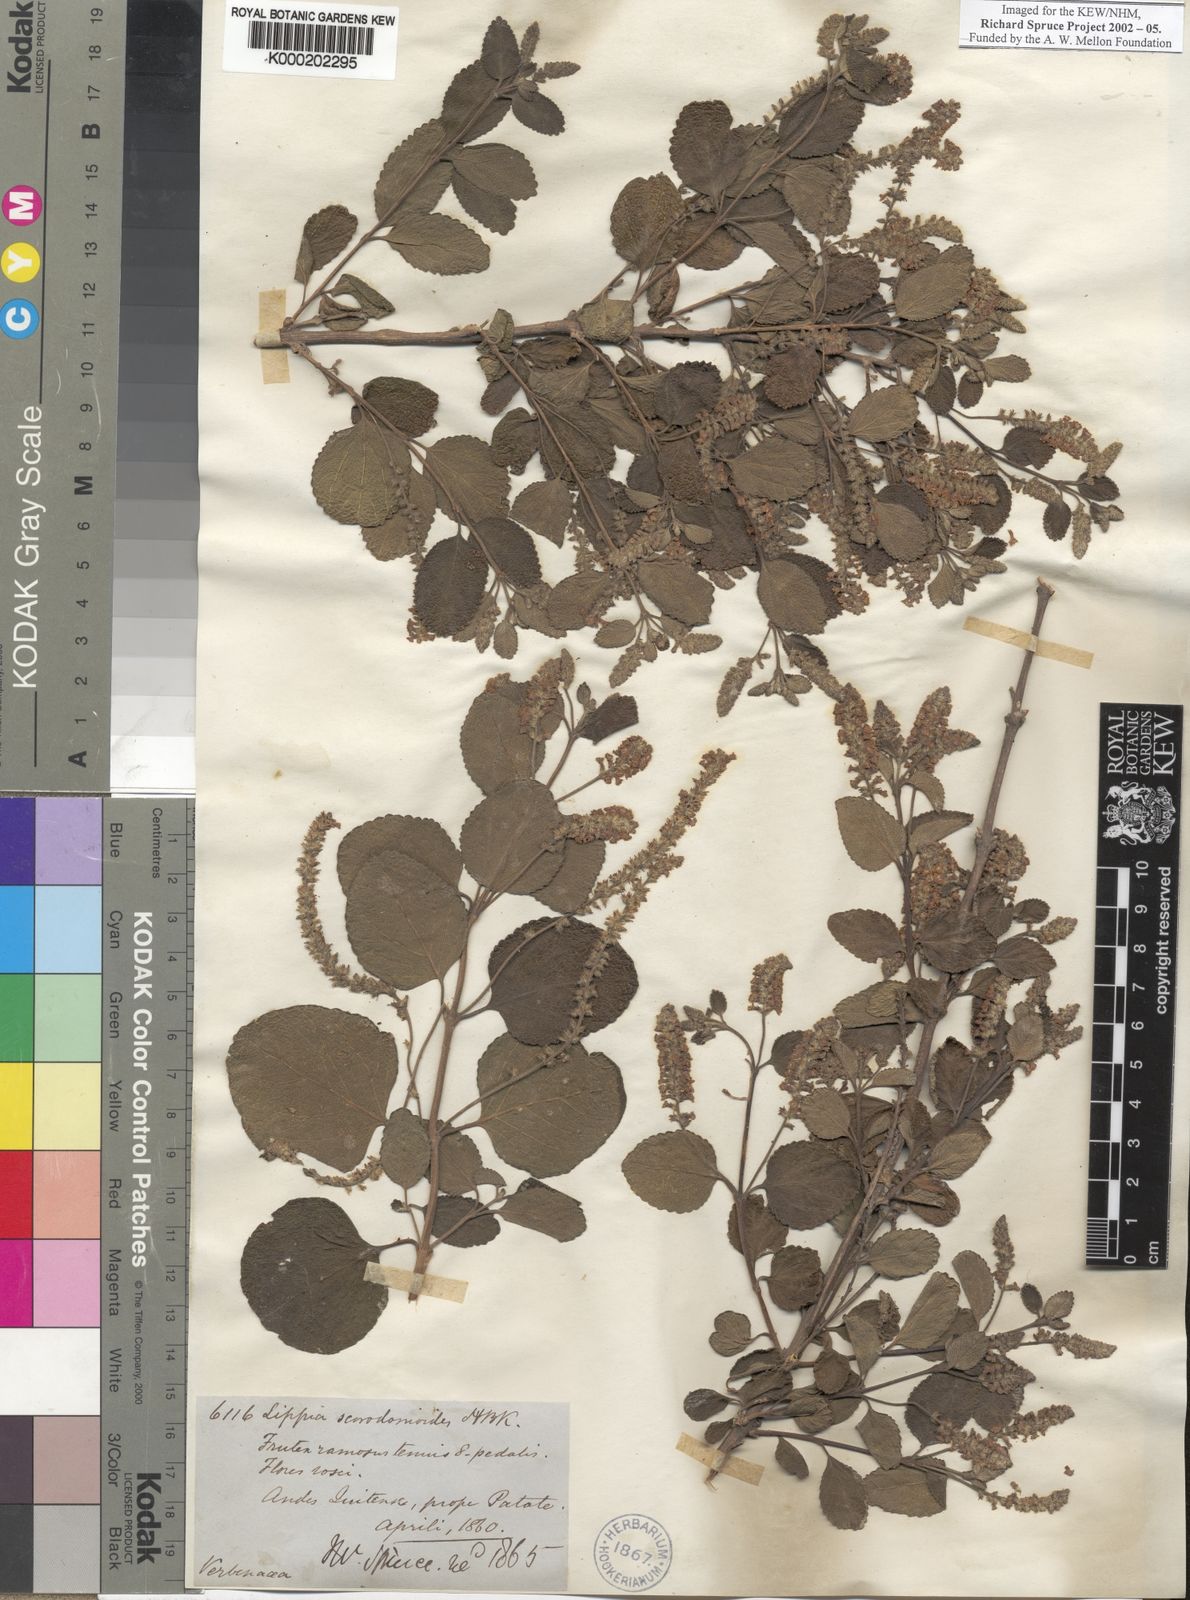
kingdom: Plantae
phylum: Tracheophyta
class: Magnoliopsida
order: Lamiales
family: Verbenaceae
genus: Aloysia
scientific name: Aloysia scorodonioides
